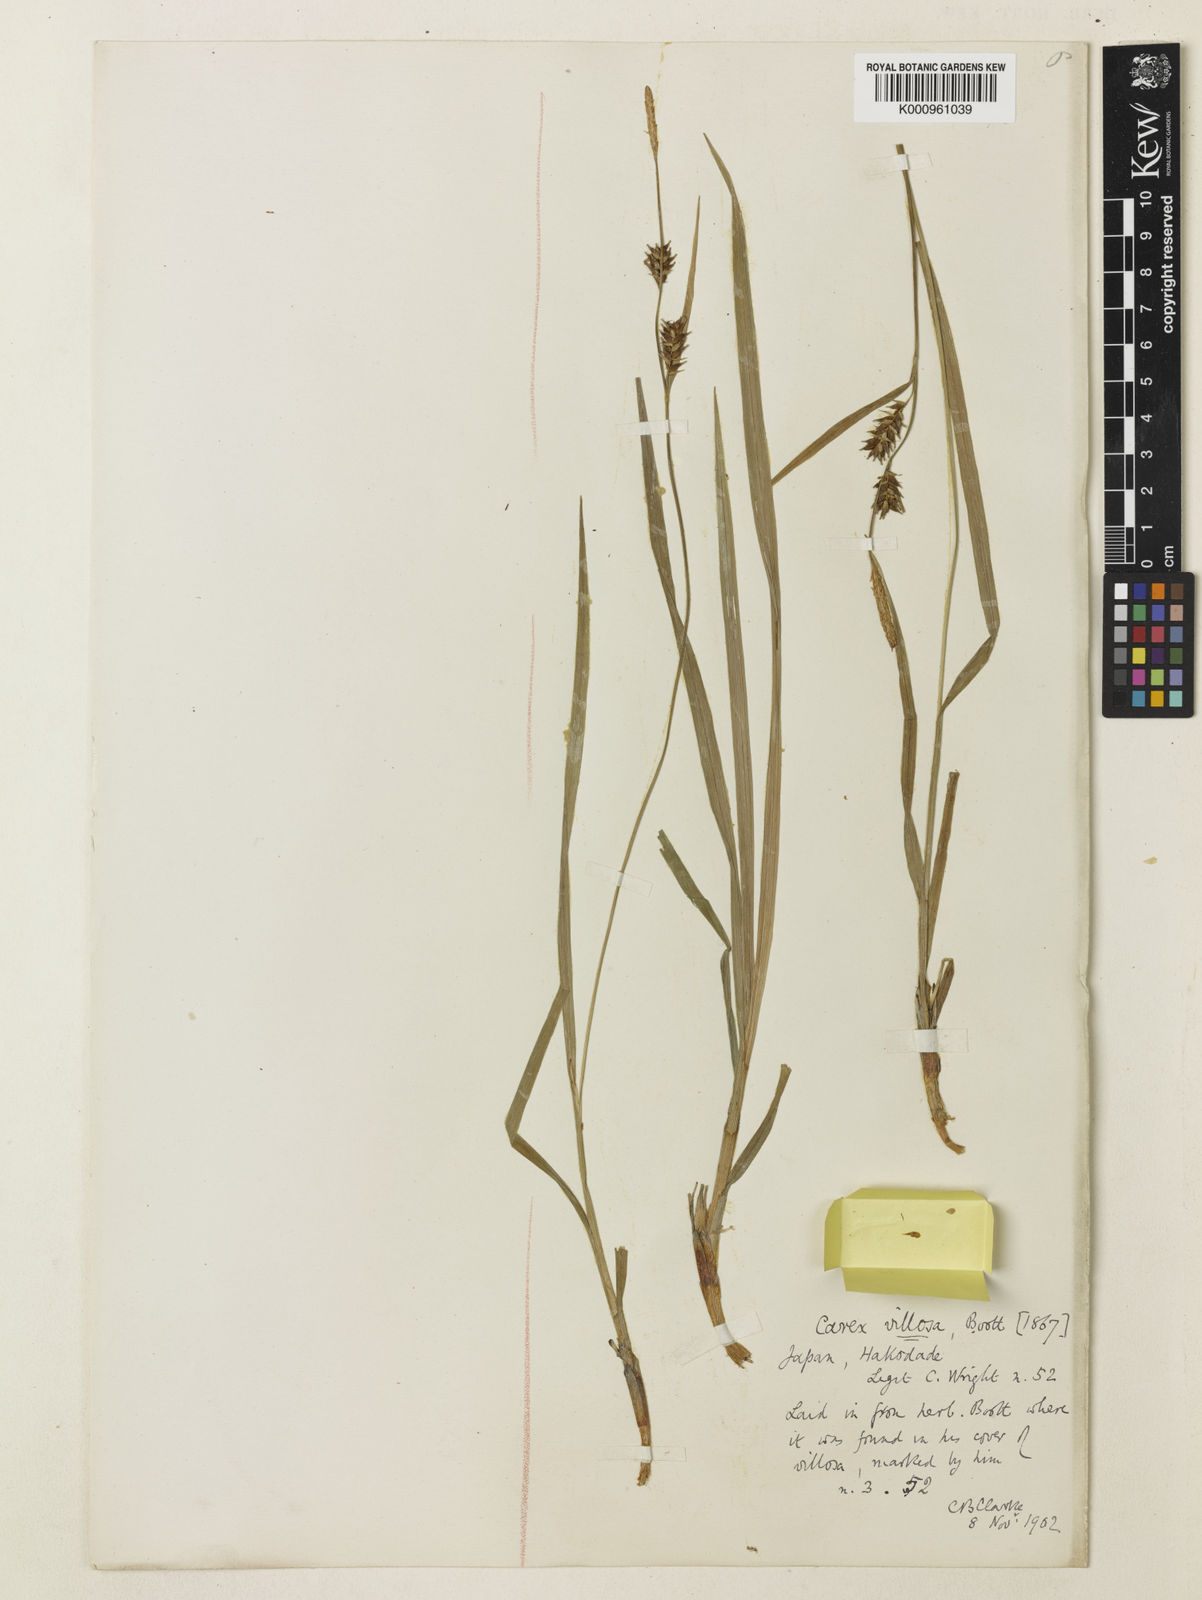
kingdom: Plantae
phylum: Tracheophyta
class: Liliopsida
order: Poales
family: Cyperaceae
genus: Carex
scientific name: Carex latisquamea
